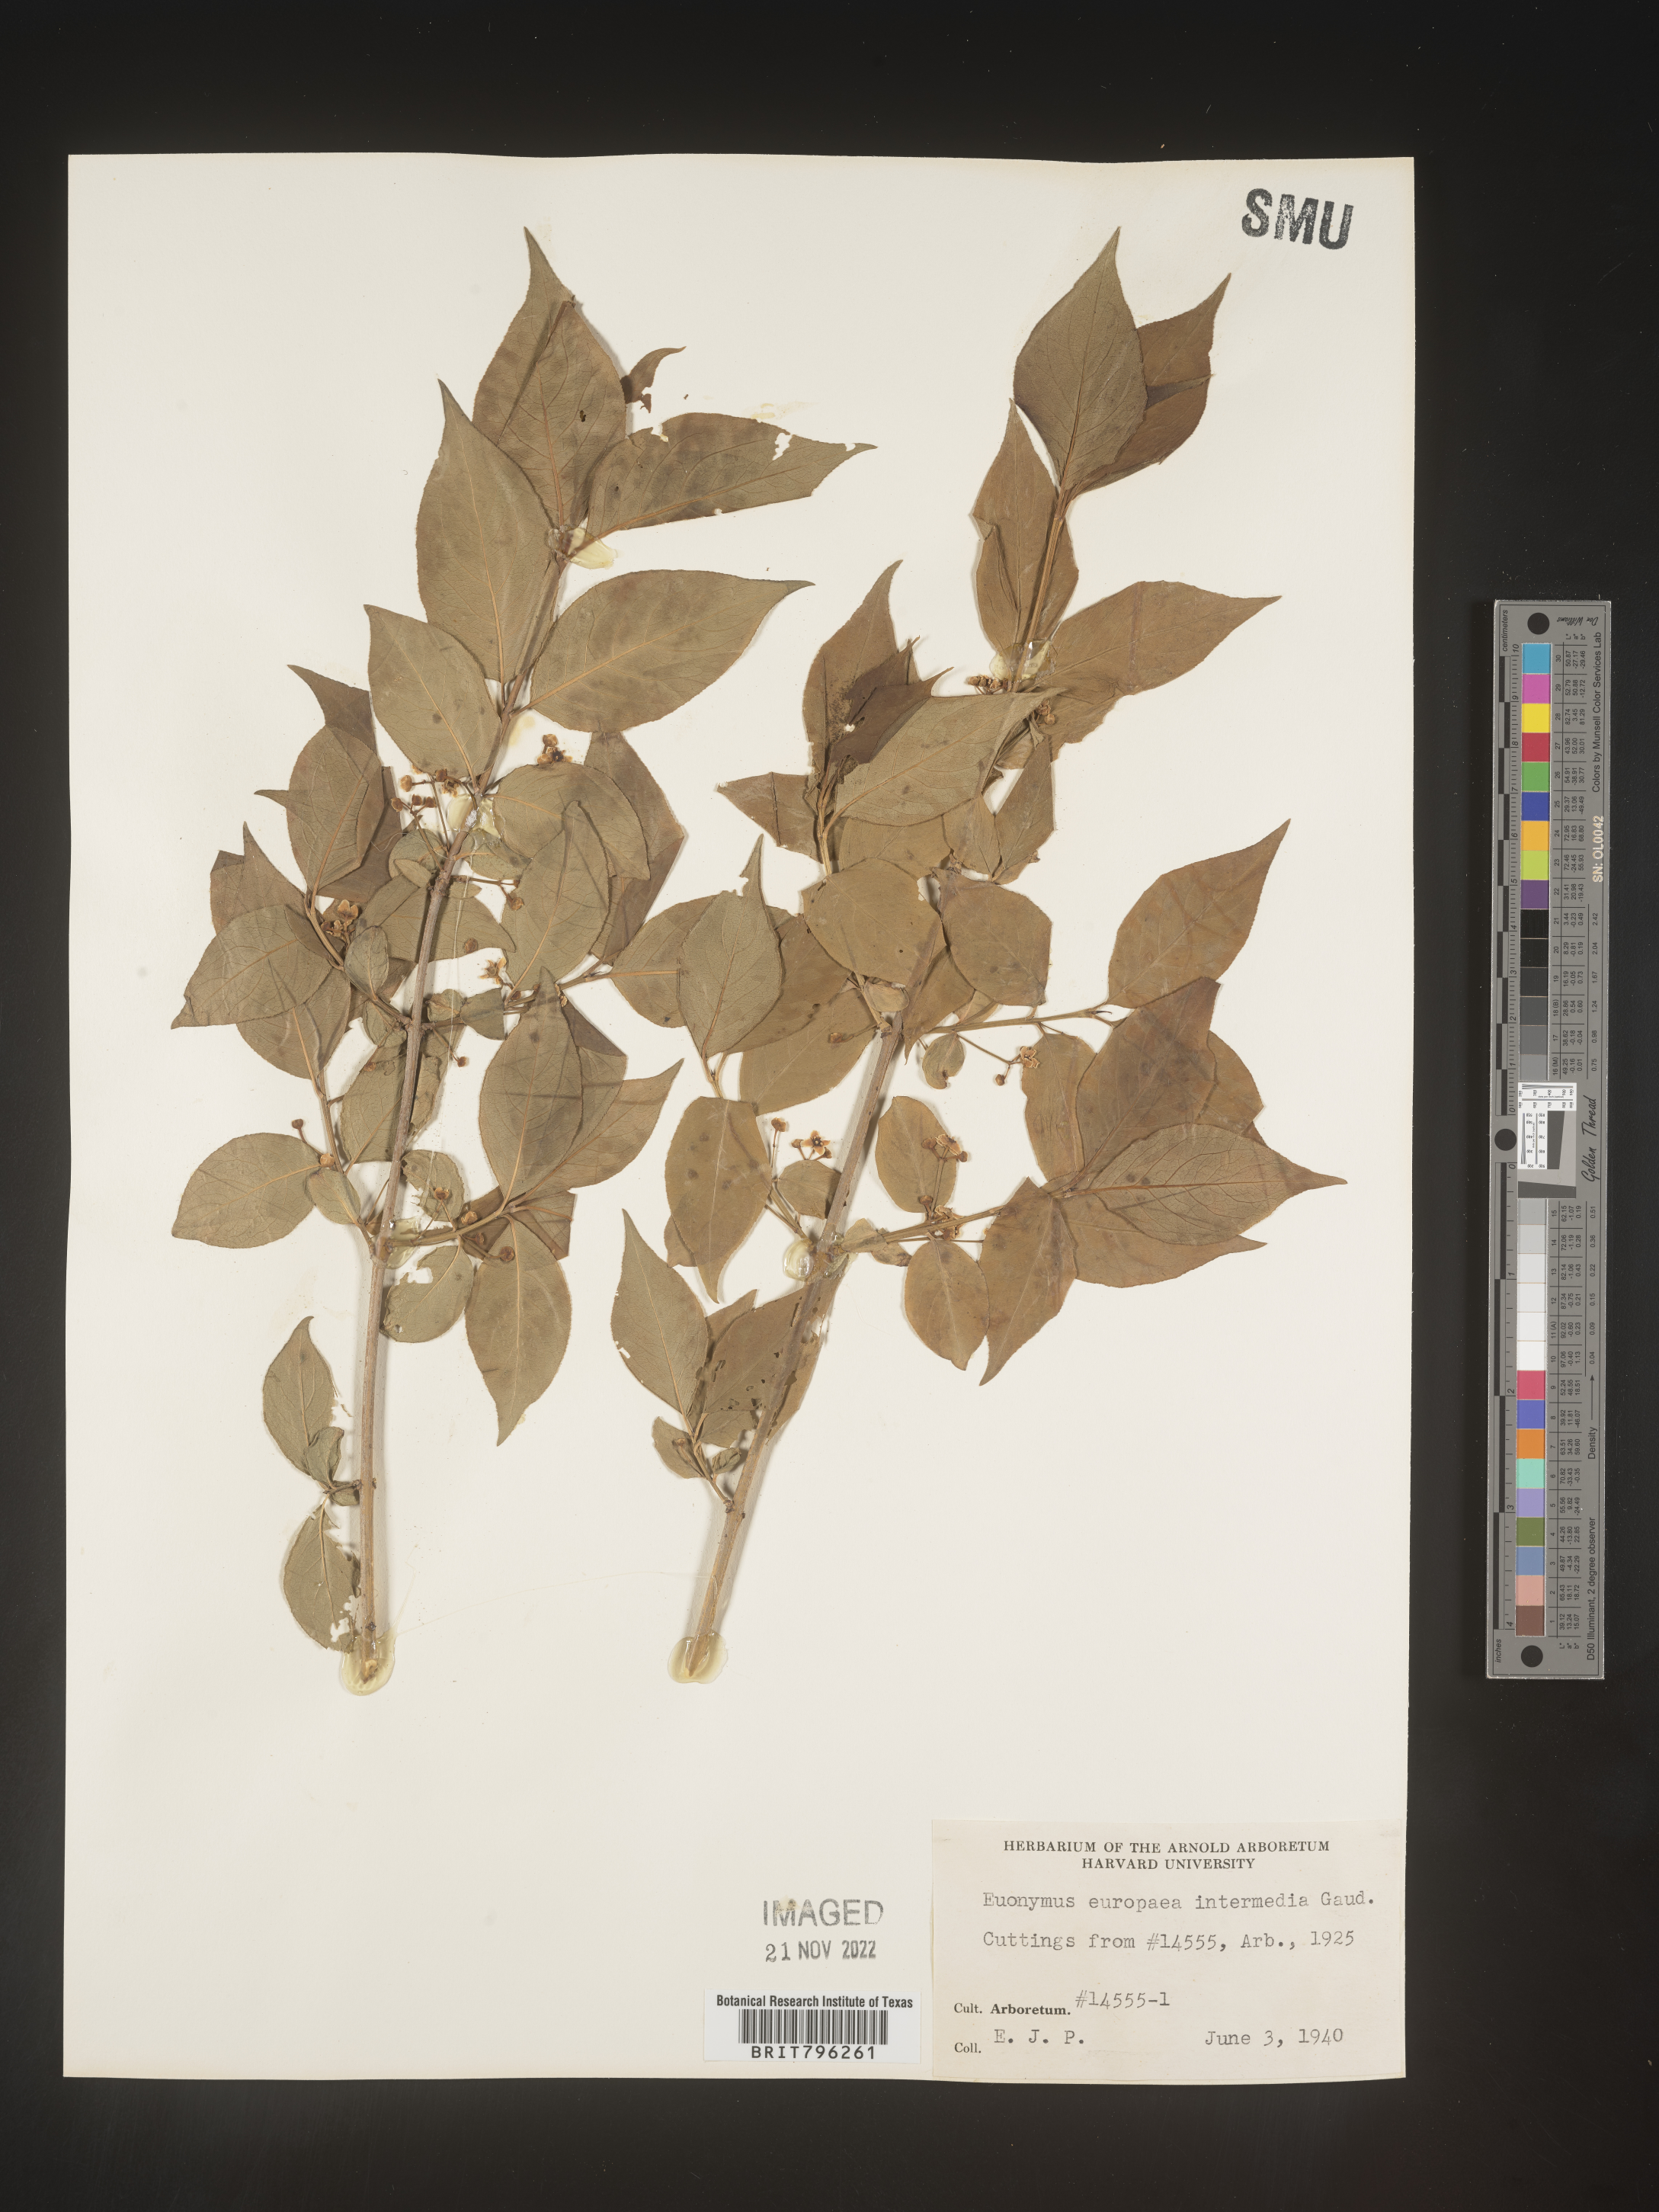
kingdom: Plantae
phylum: Tracheophyta
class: Magnoliopsida
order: Celastrales
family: Celastraceae
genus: Euonymus
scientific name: Euonymus europaeus
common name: Spindle
